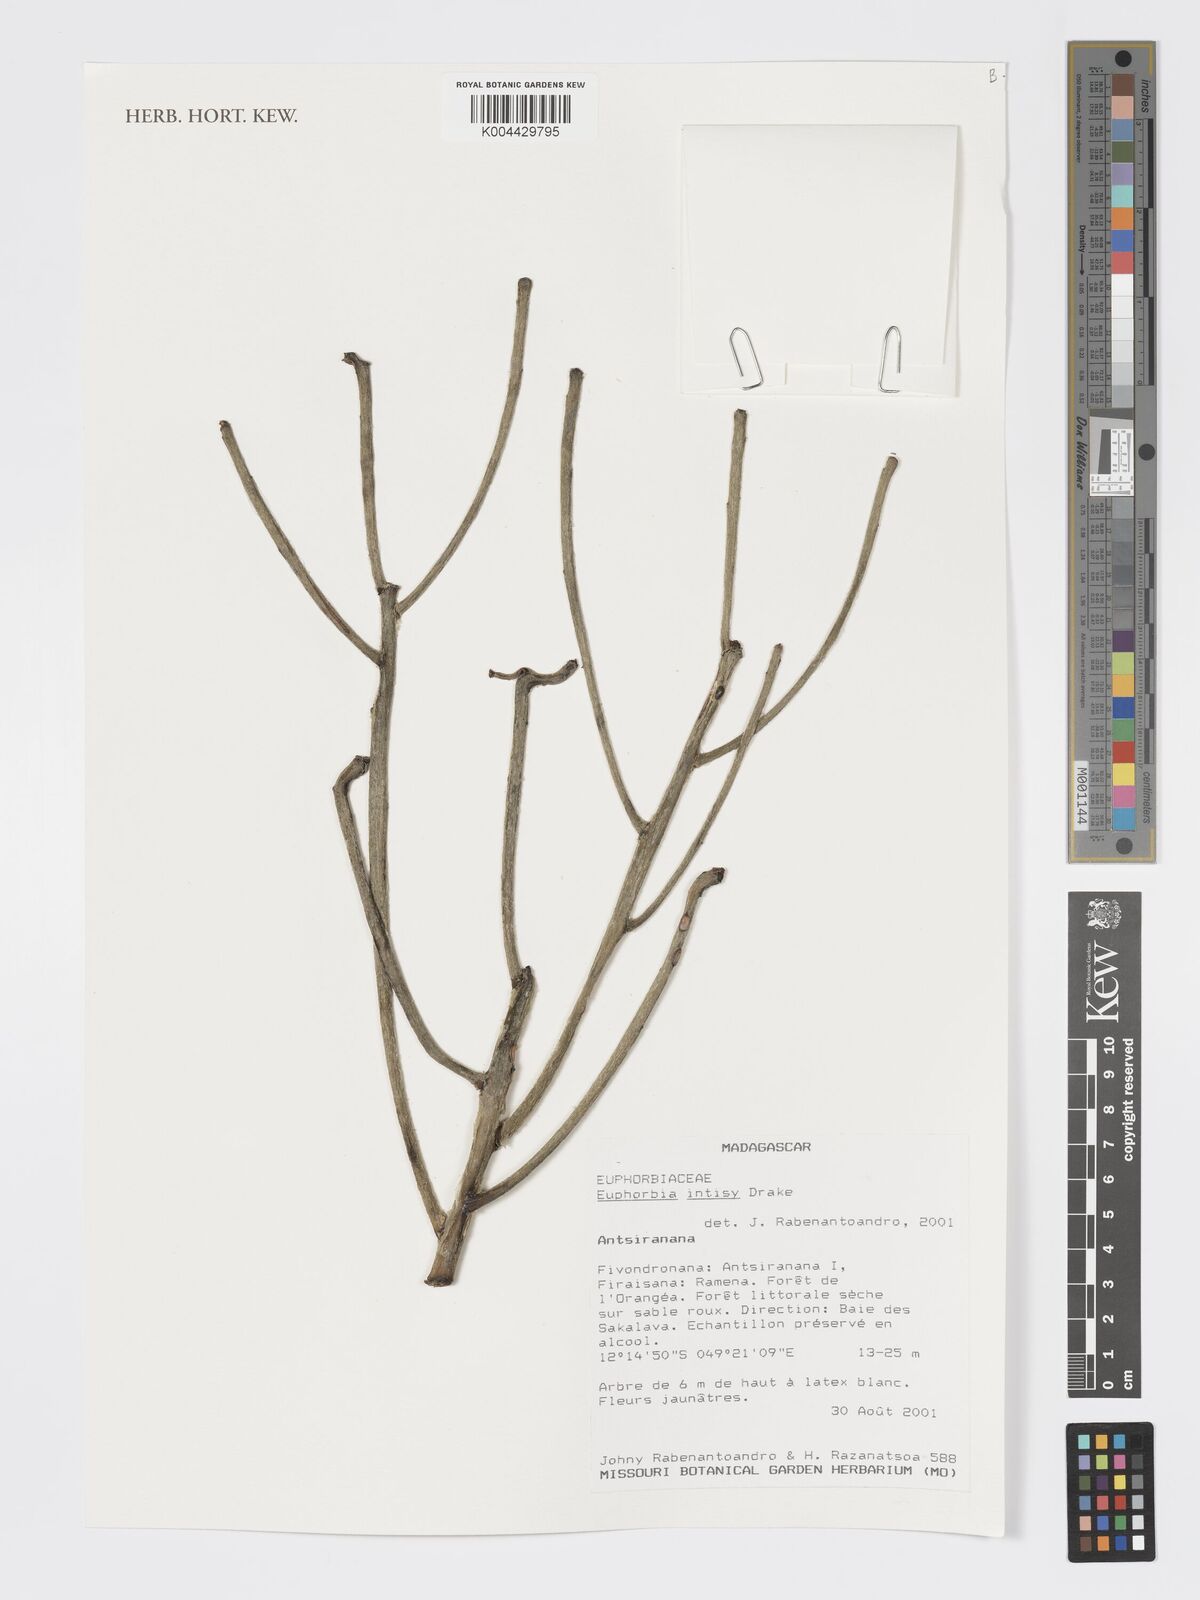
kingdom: Plantae
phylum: Tracheophyta
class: Magnoliopsida
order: Malpighiales
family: Euphorbiaceae
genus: Euphorbia
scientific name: Euphorbia intisy
